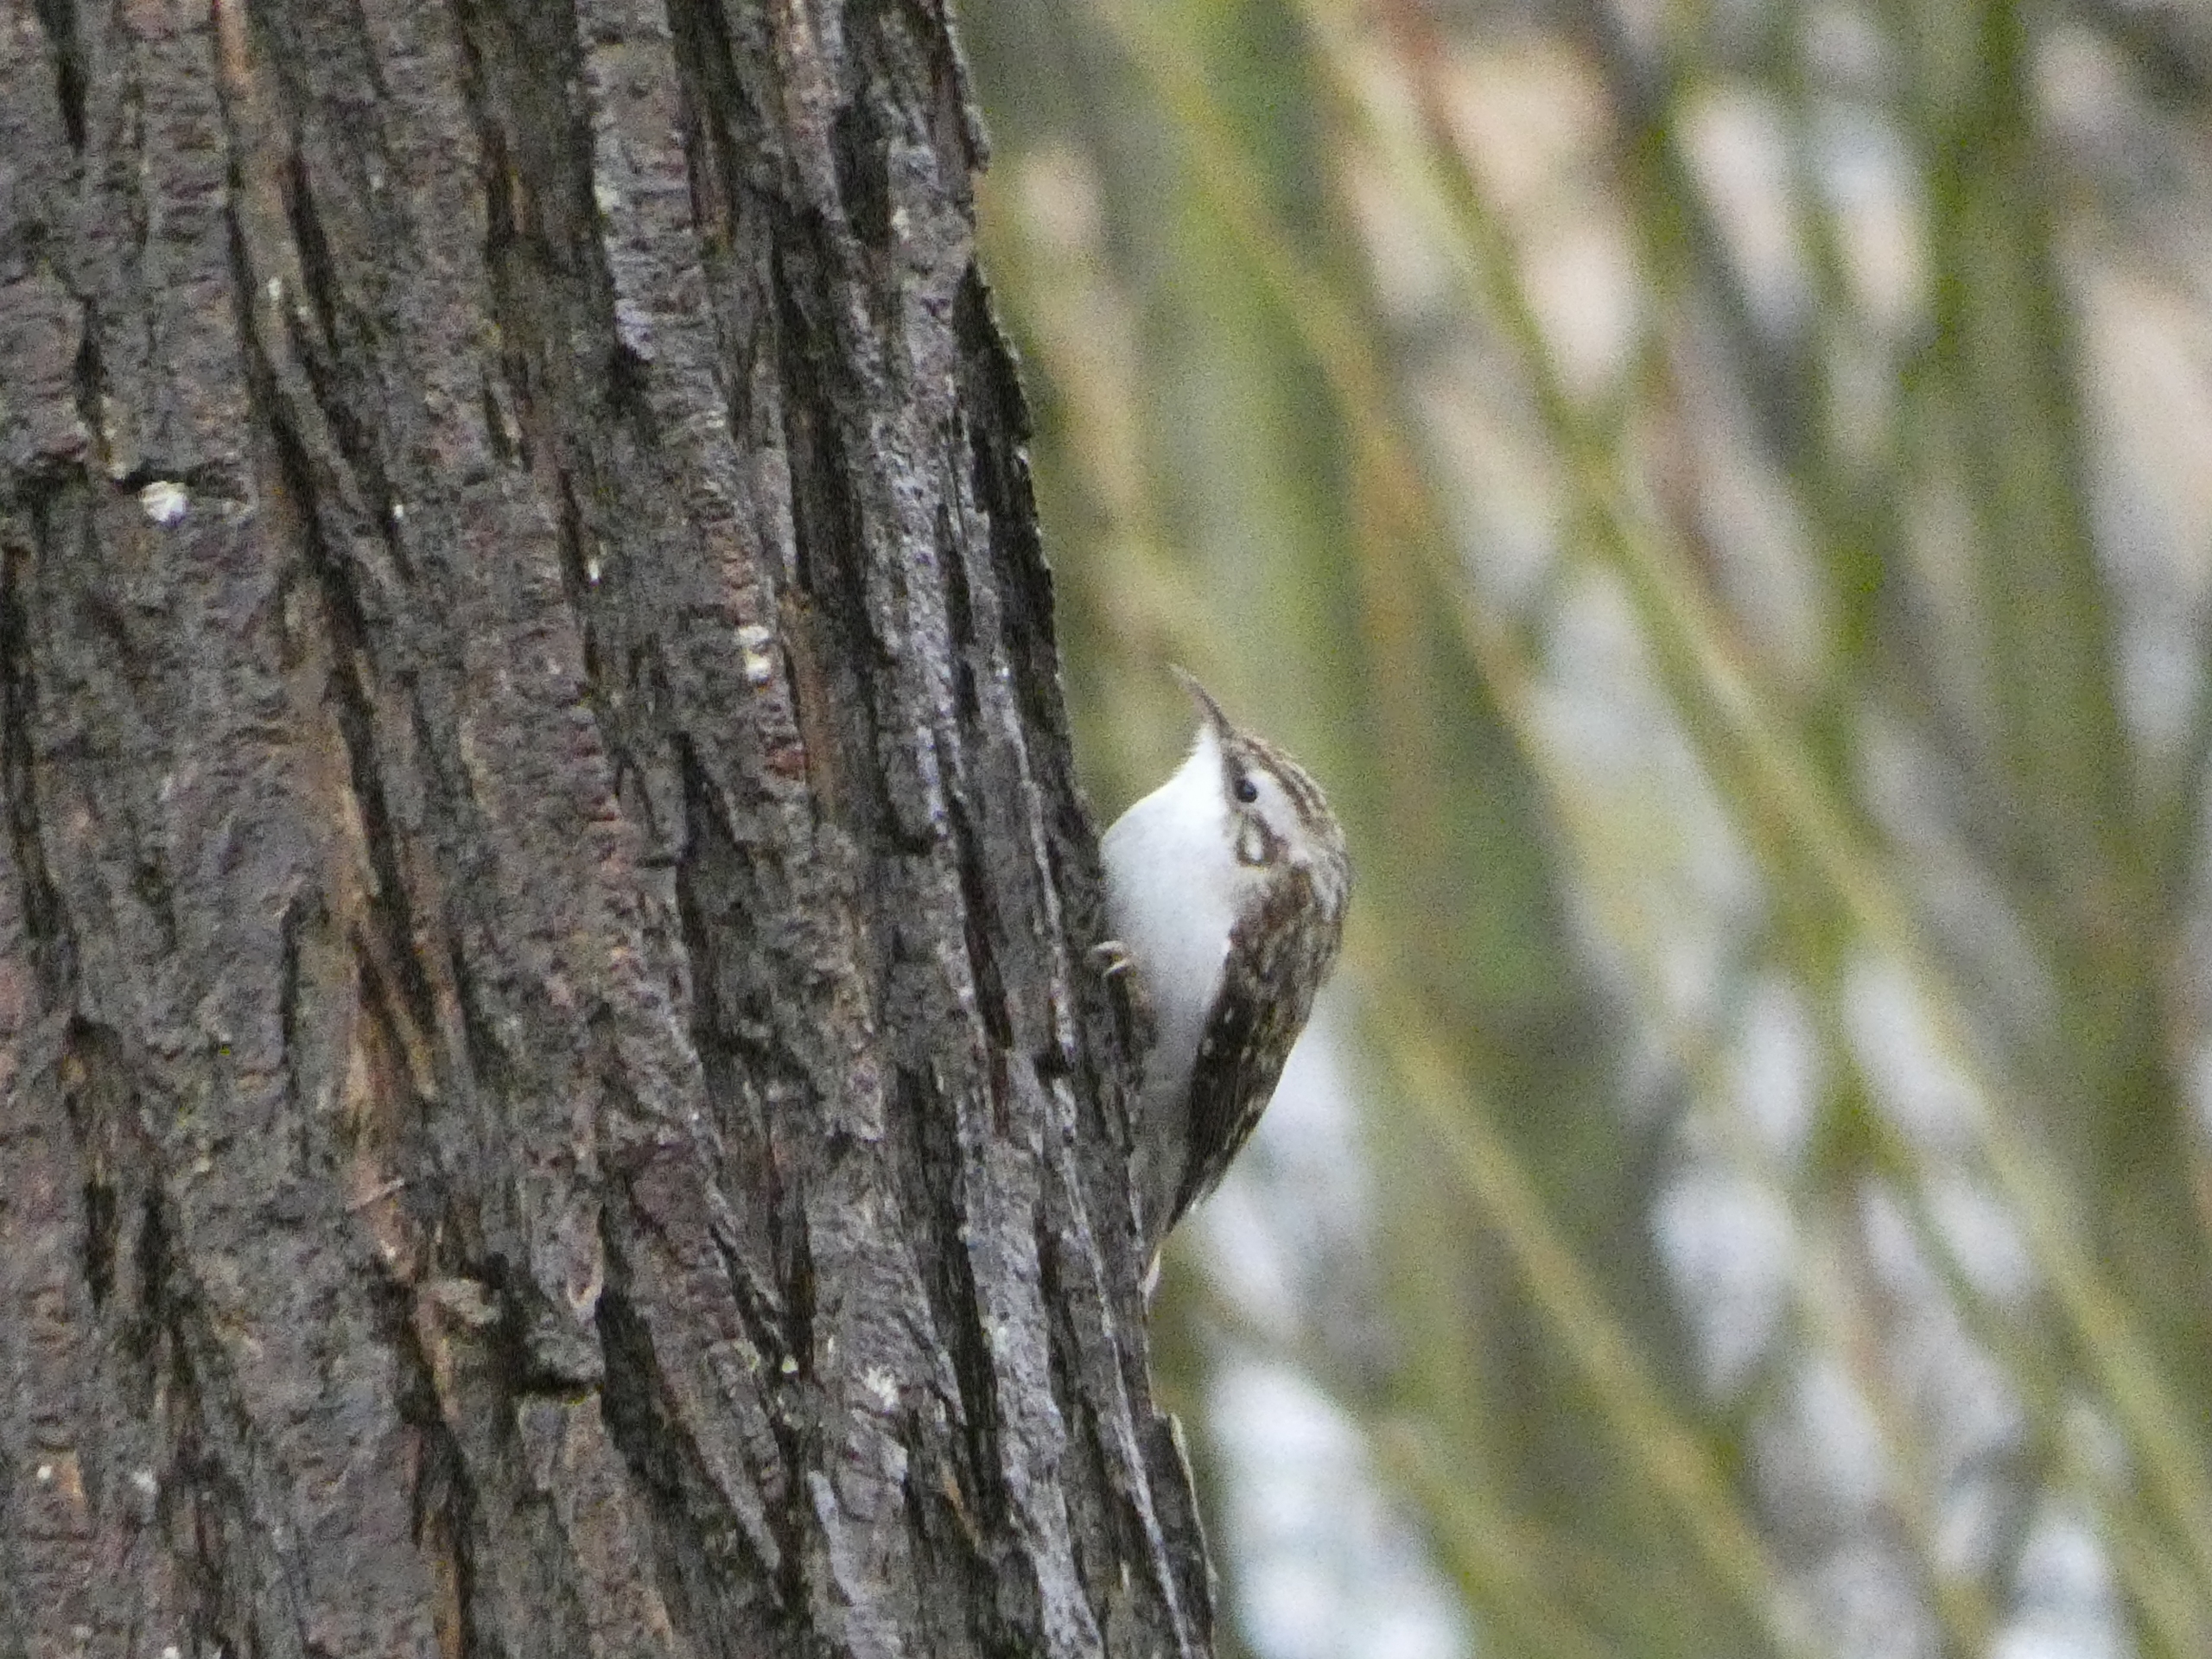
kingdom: Animalia
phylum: Chordata
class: Aves
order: Passeriformes
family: Certhiidae
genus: Certhia
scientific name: Certhia familiaris
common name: Træløber
